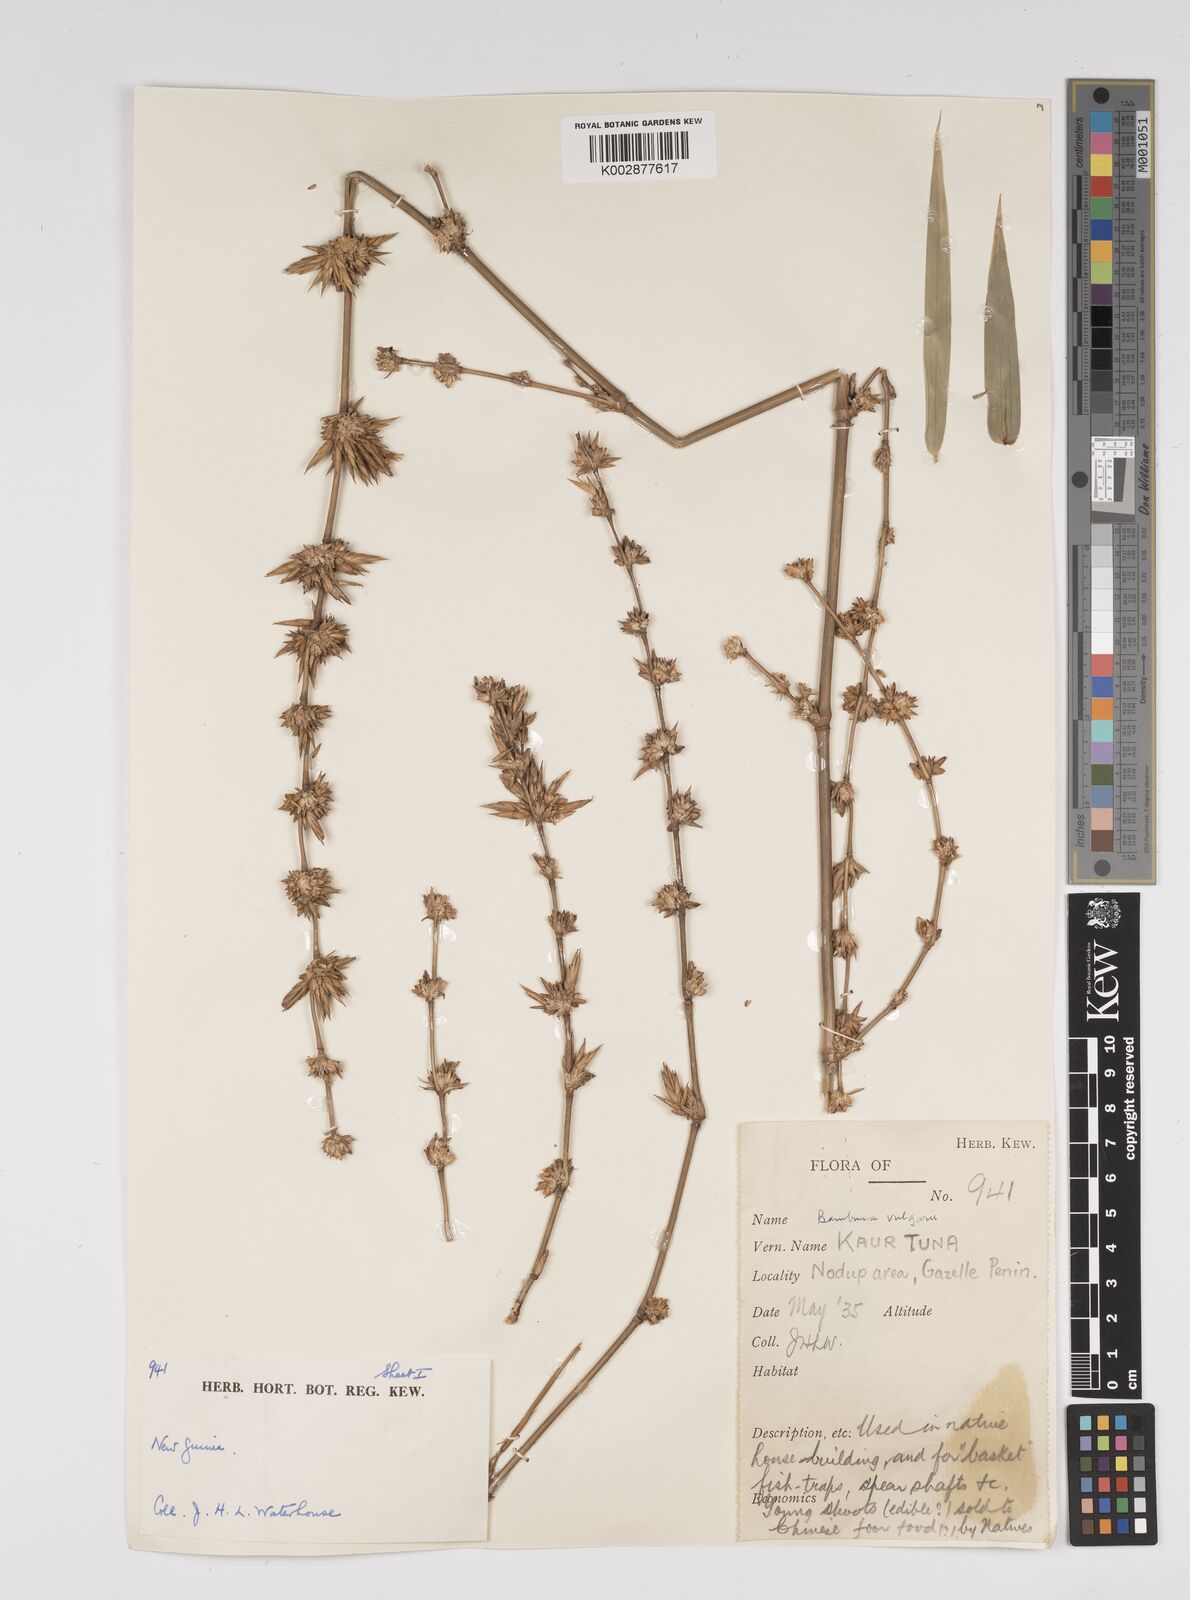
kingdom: Plantae
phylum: Tracheophyta
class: Liliopsida
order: Poales
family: Poaceae
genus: Bambusa
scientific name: Bambusa balcooa
